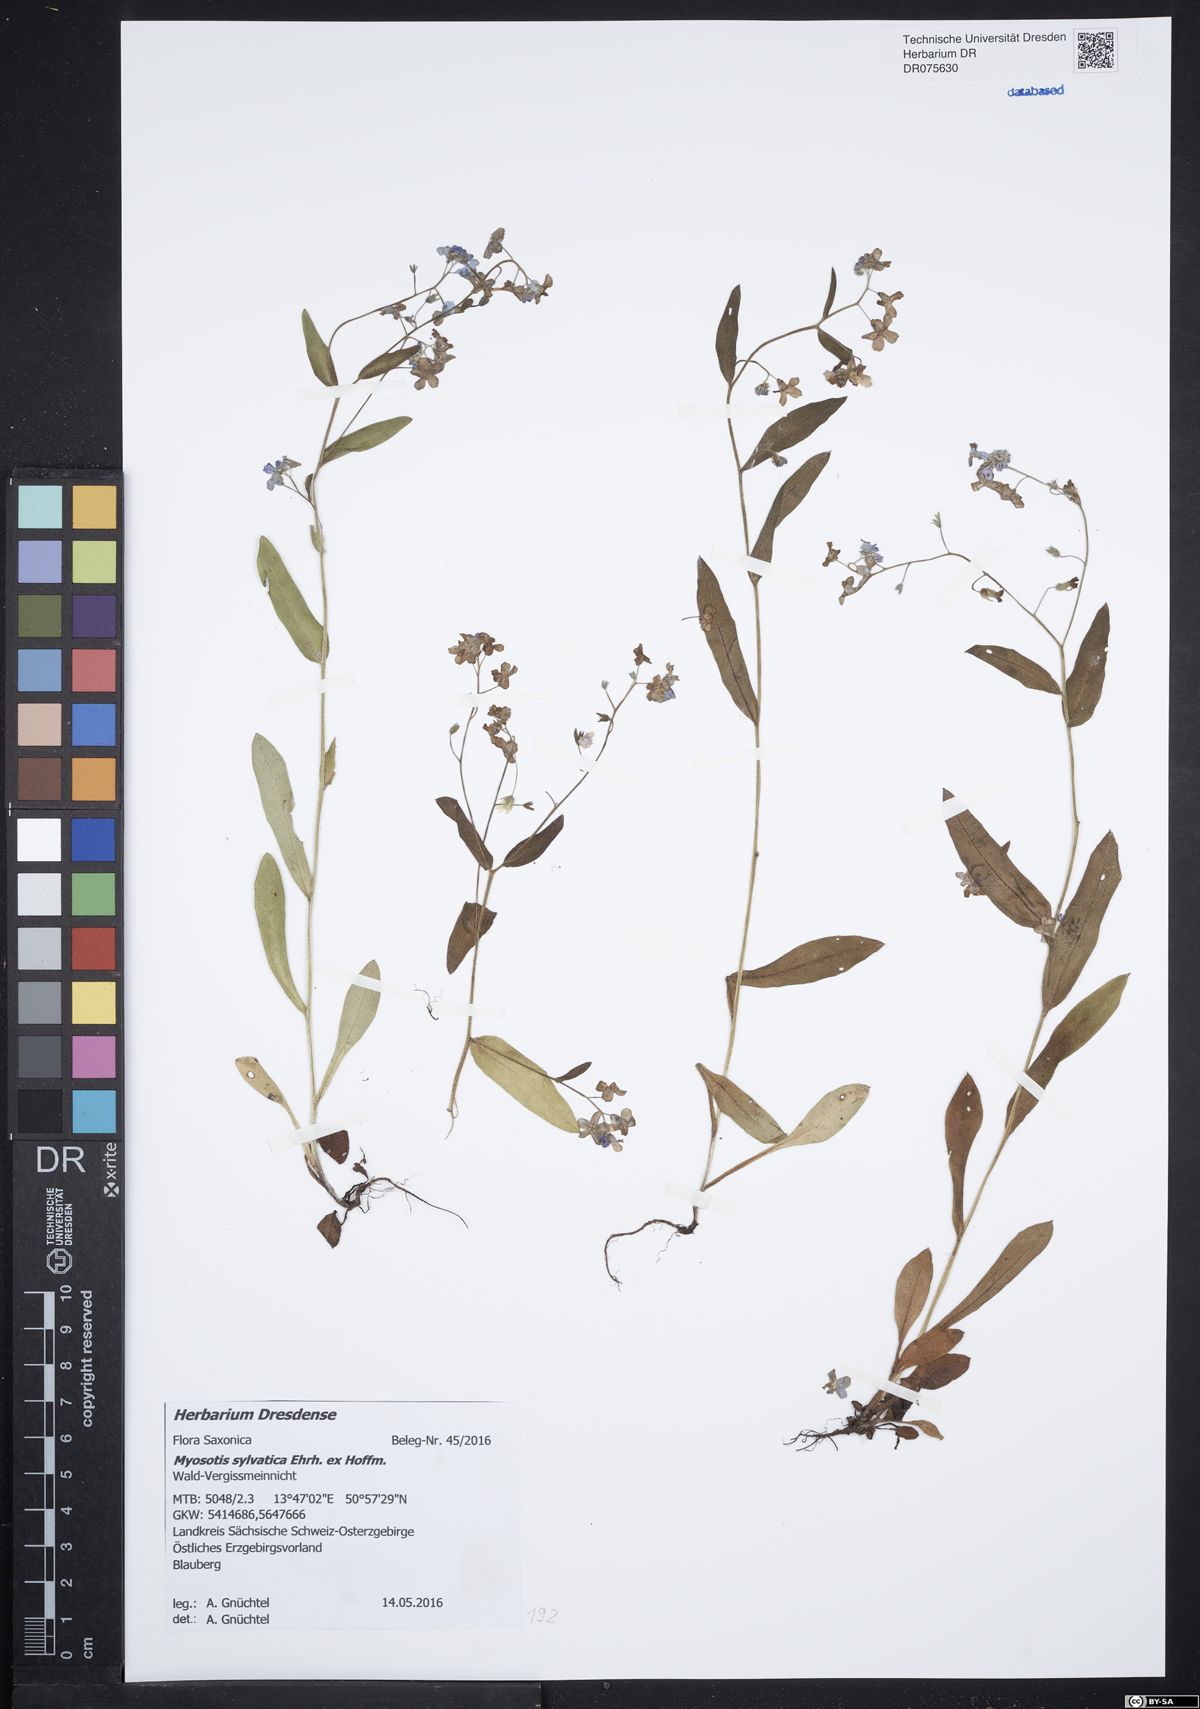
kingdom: Plantae
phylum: Tracheophyta
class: Magnoliopsida
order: Boraginales
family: Boraginaceae
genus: Myosotis
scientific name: Myosotis sylvatica
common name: Wood forget-me-not
